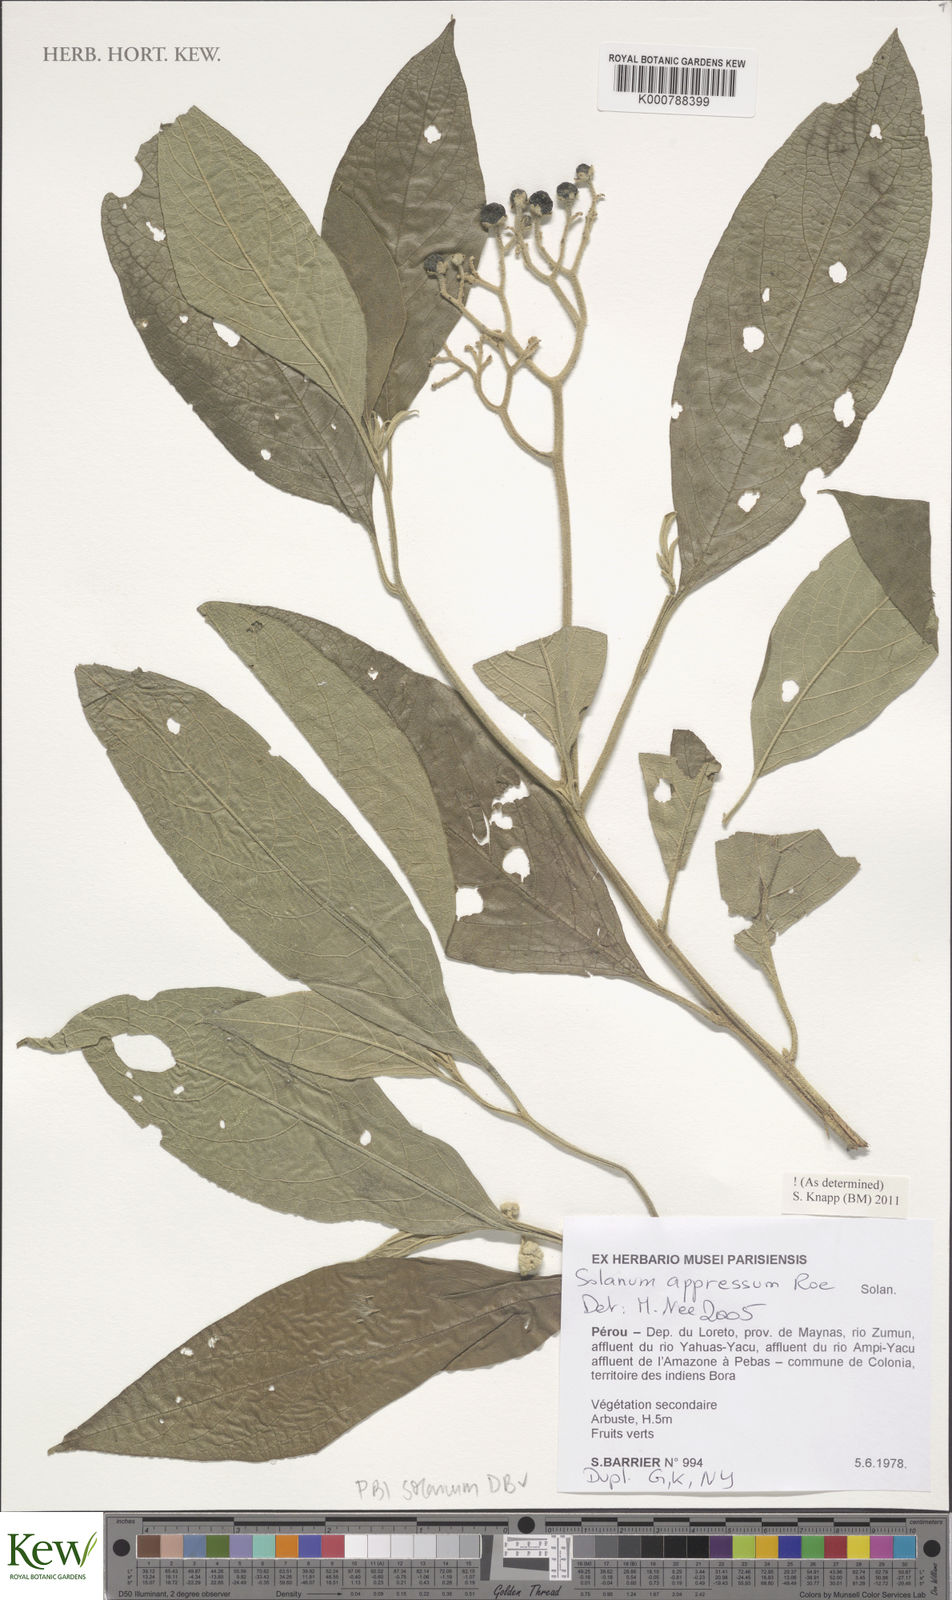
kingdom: Plantae
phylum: Tracheophyta
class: Magnoliopsida
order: Solanales
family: Solanaceae
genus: Solanum
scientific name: Solanum appressum
